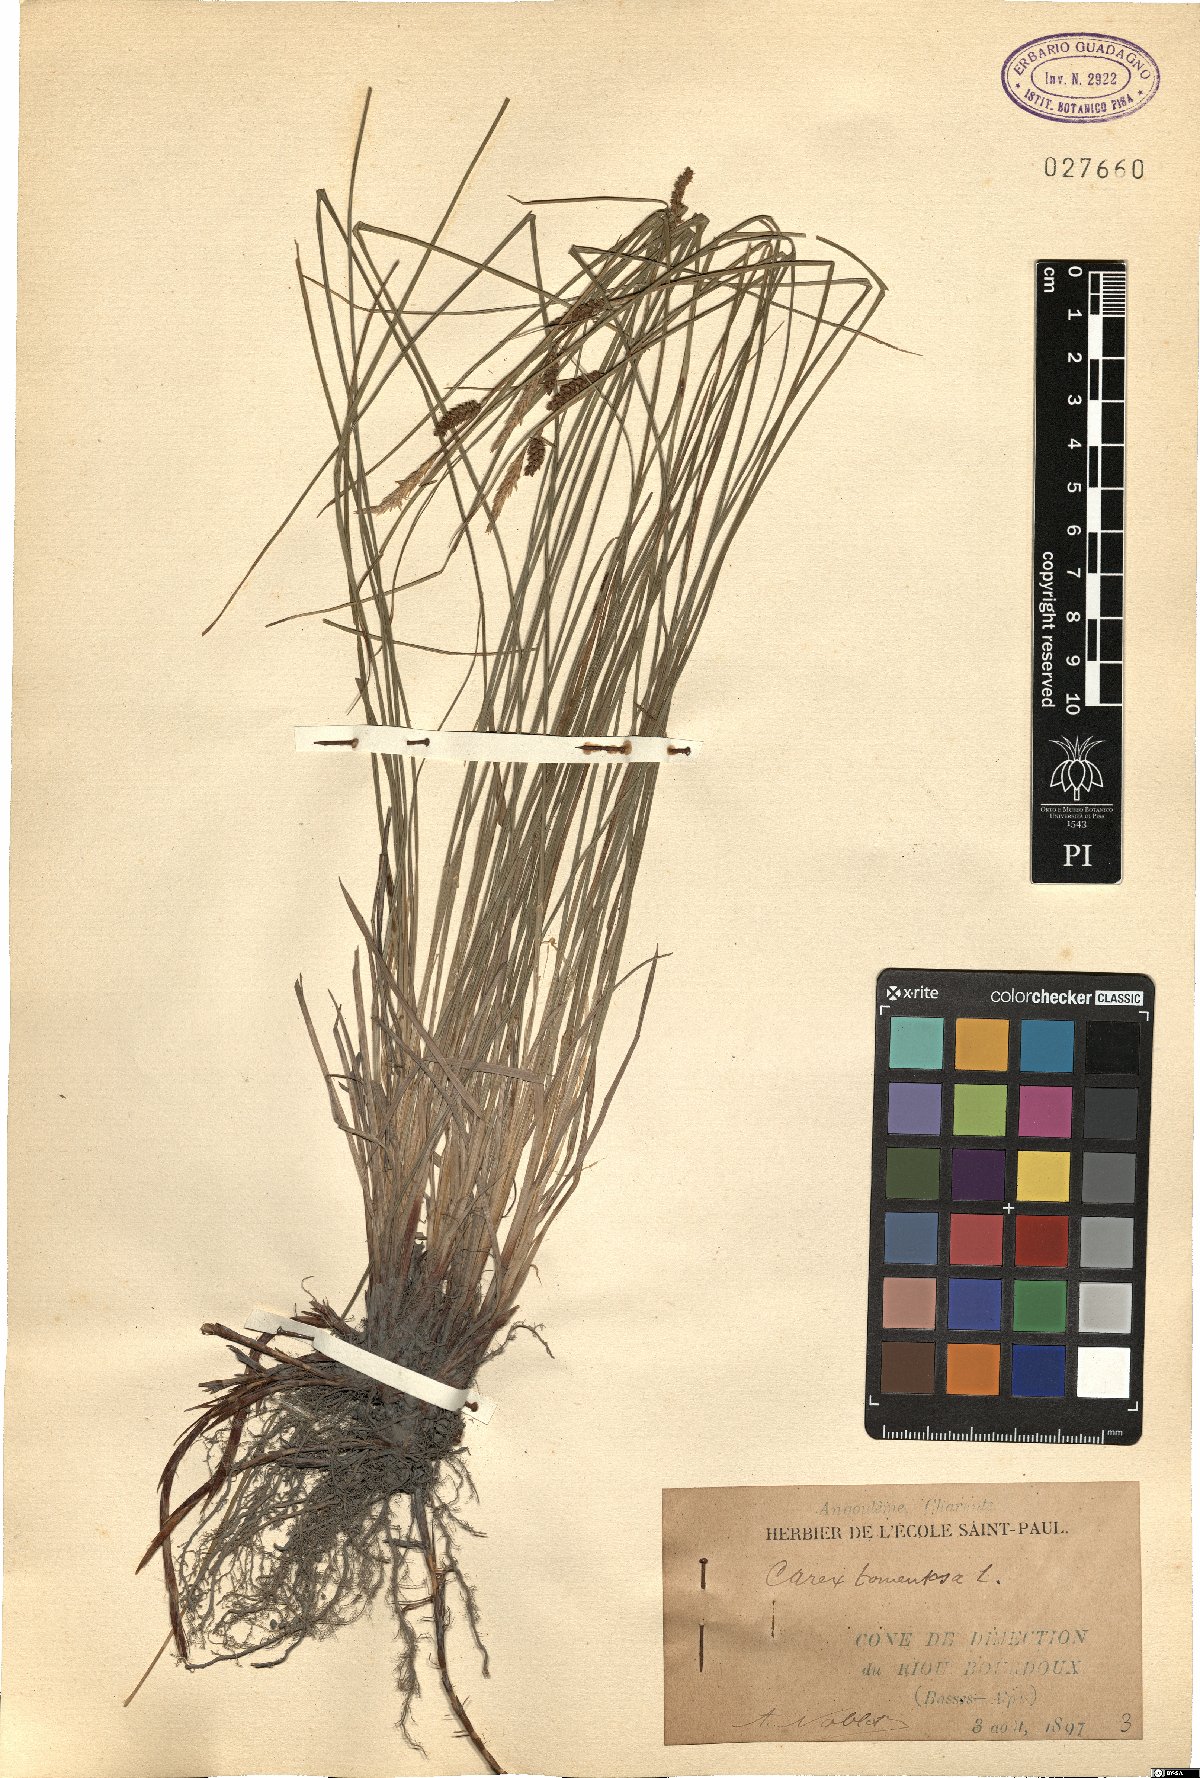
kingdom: Plantae
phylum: Tracheophyta
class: Liliopsida
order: Poales
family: Cyperaceae
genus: Carex
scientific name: Carex tomentosa
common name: Downy-fruited sedge
